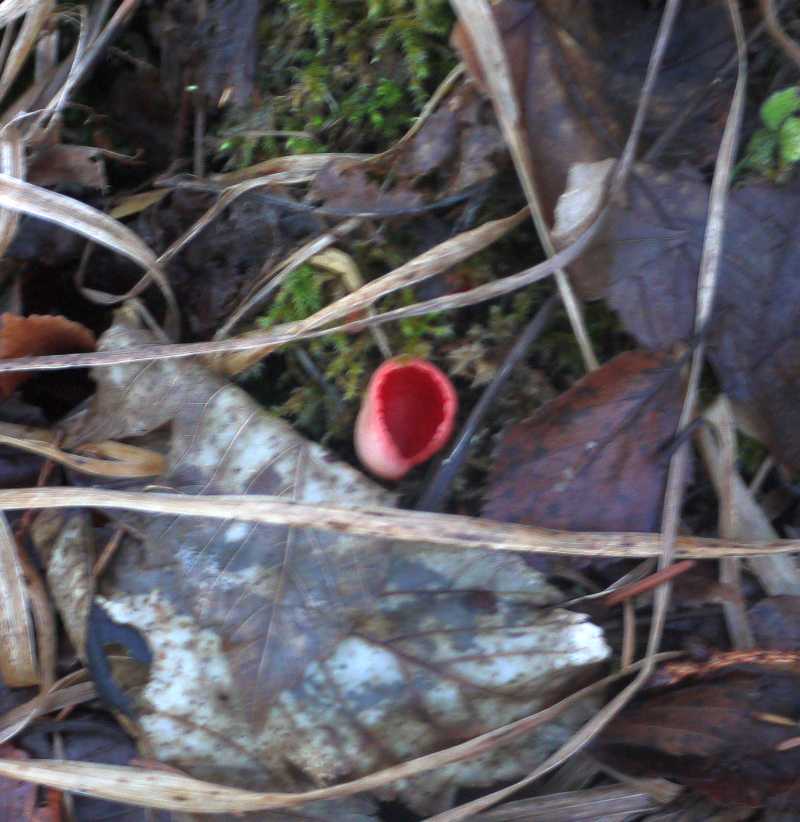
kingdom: Fungi
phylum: Ascomycota
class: Pezizomycetes
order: Pezizales
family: Sarcoscyphaceae
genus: Sarcoscypha
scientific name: Sarcoscypha austriaca
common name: krølhåret pragtbæger
